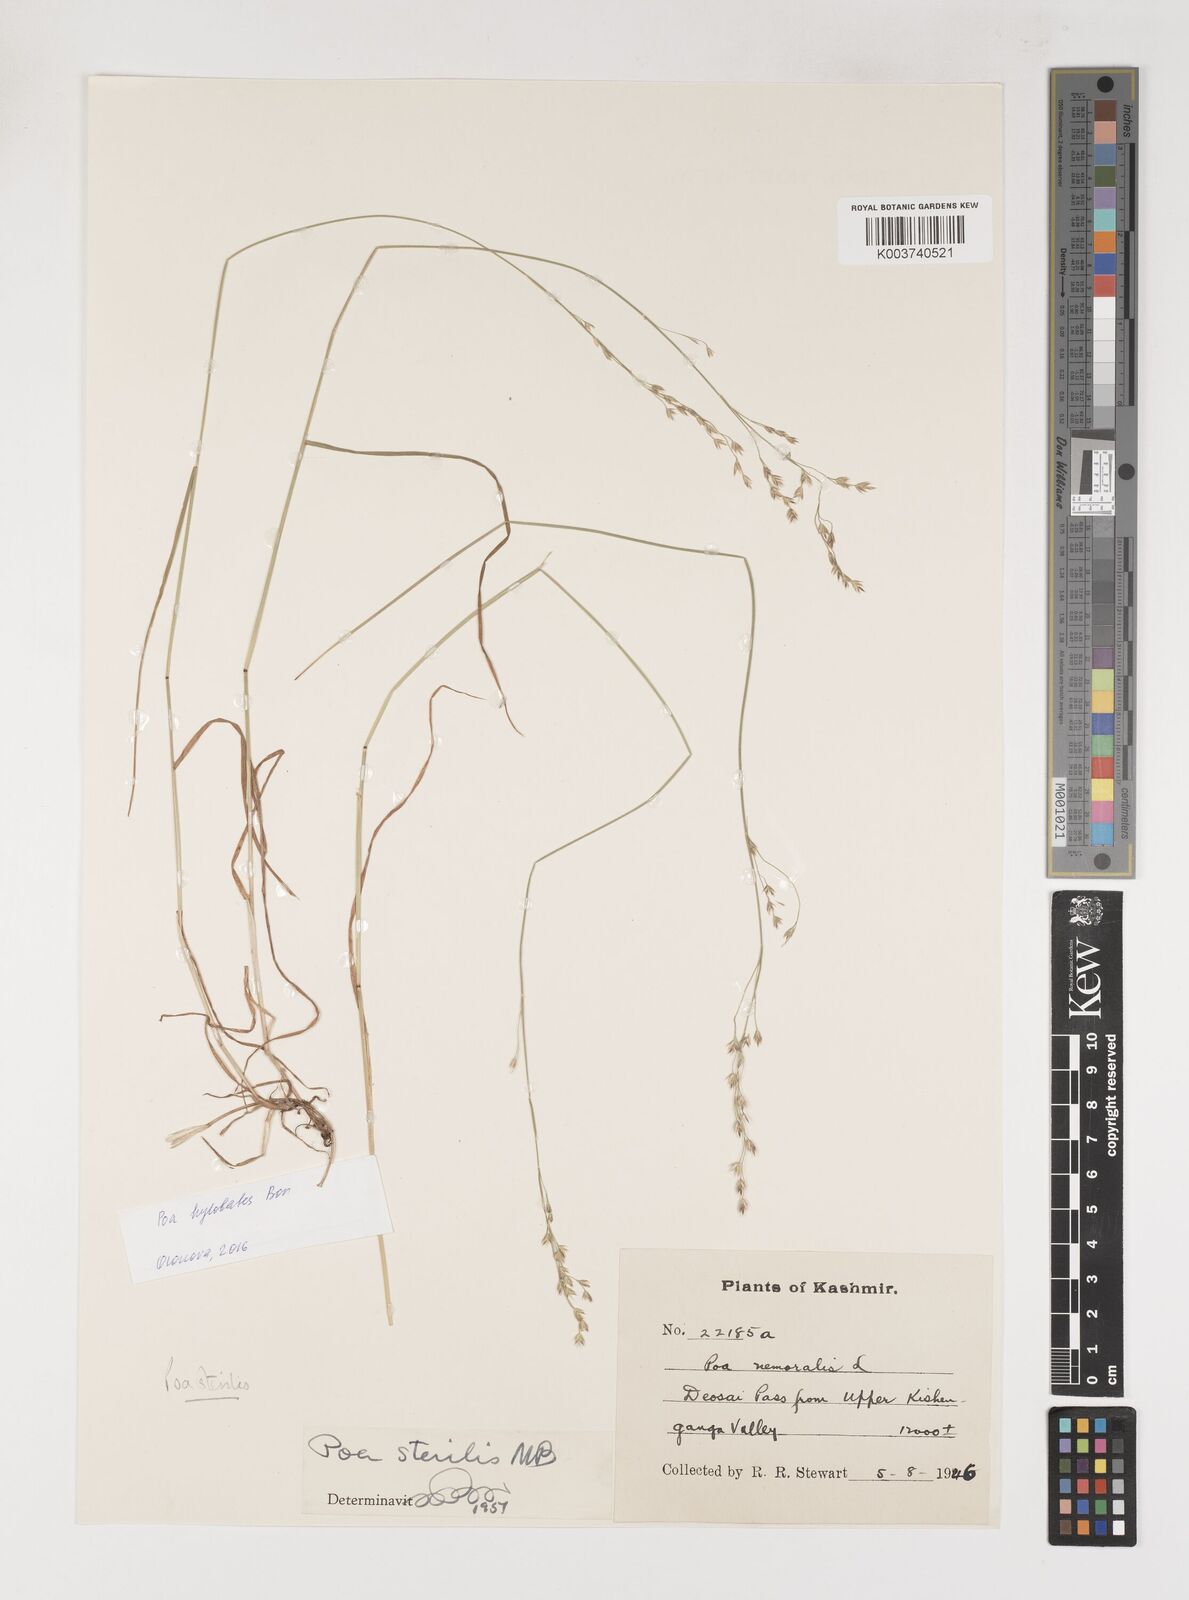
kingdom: Plantae
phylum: Tracheophyta
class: Liliopsida
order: Poales
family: Poaceae
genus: Poa
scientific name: Poa sterilis
